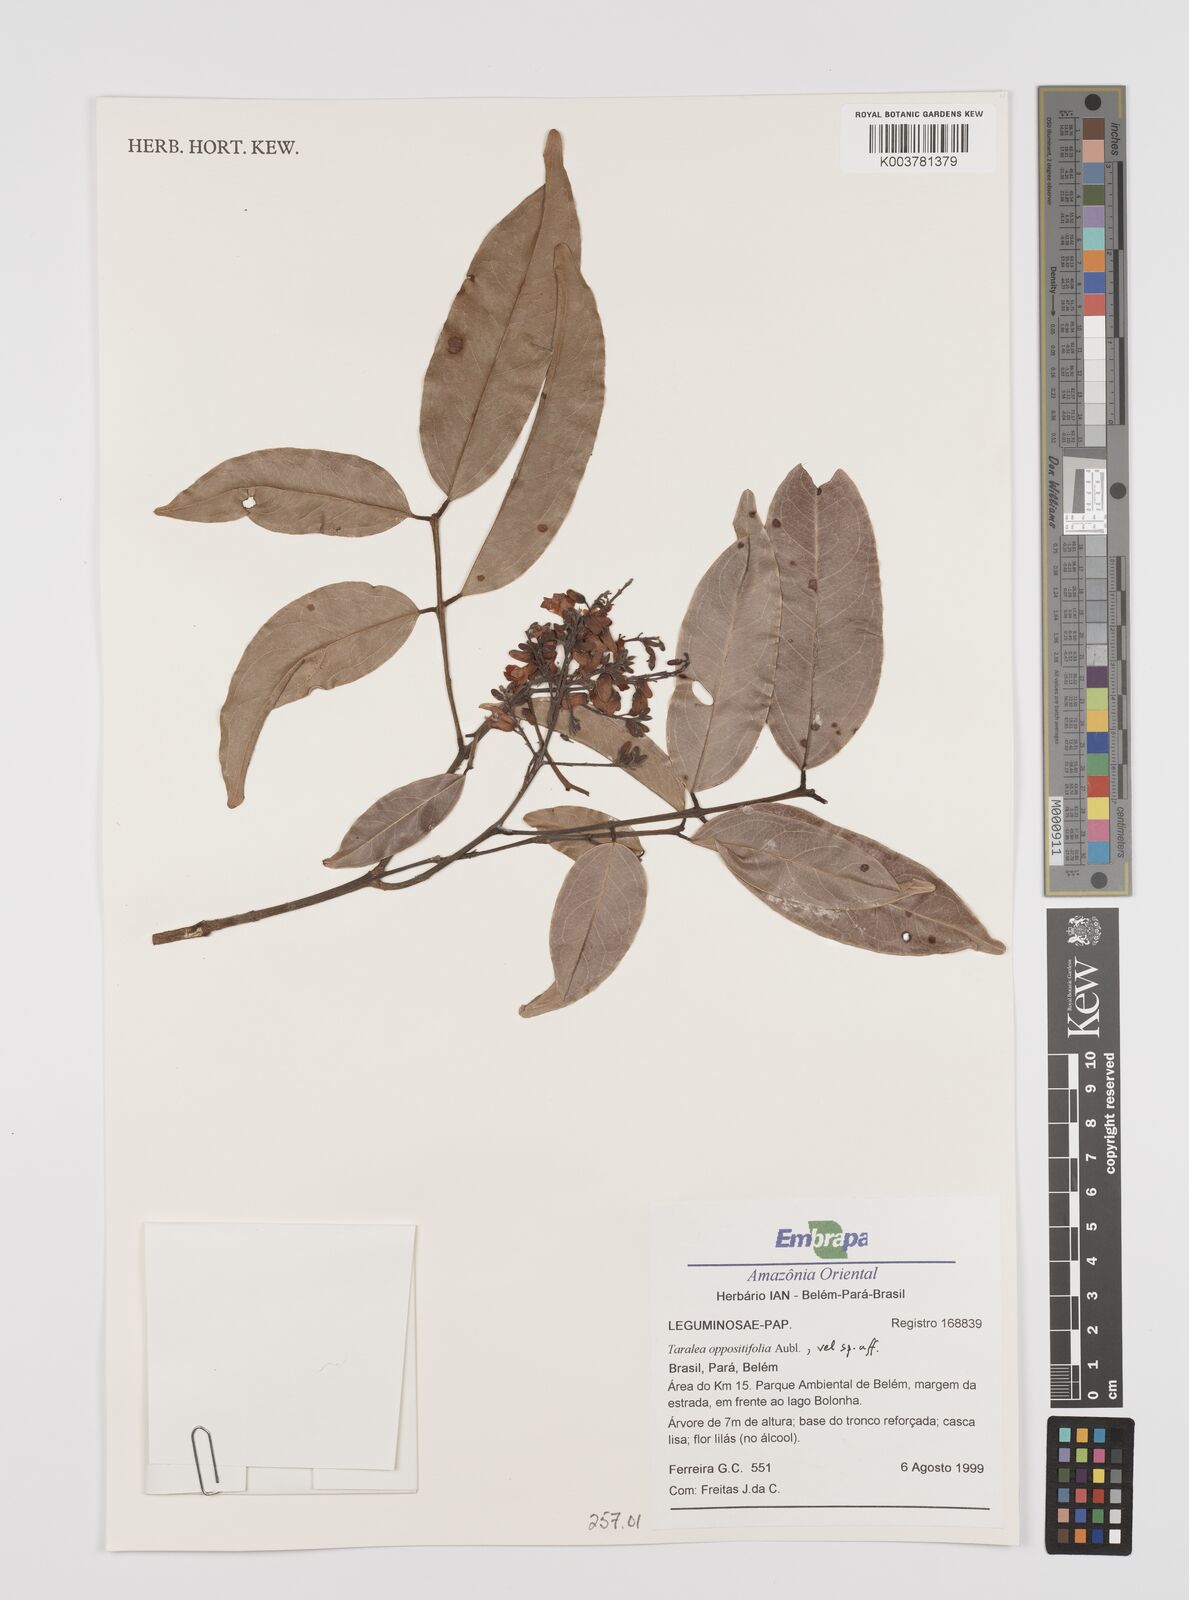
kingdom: Plantae
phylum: Tracheophyta
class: Magnoliopsida
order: Fabales
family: Fabaceae
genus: Taralea
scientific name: Taralea oppositifolia
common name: Tonka
